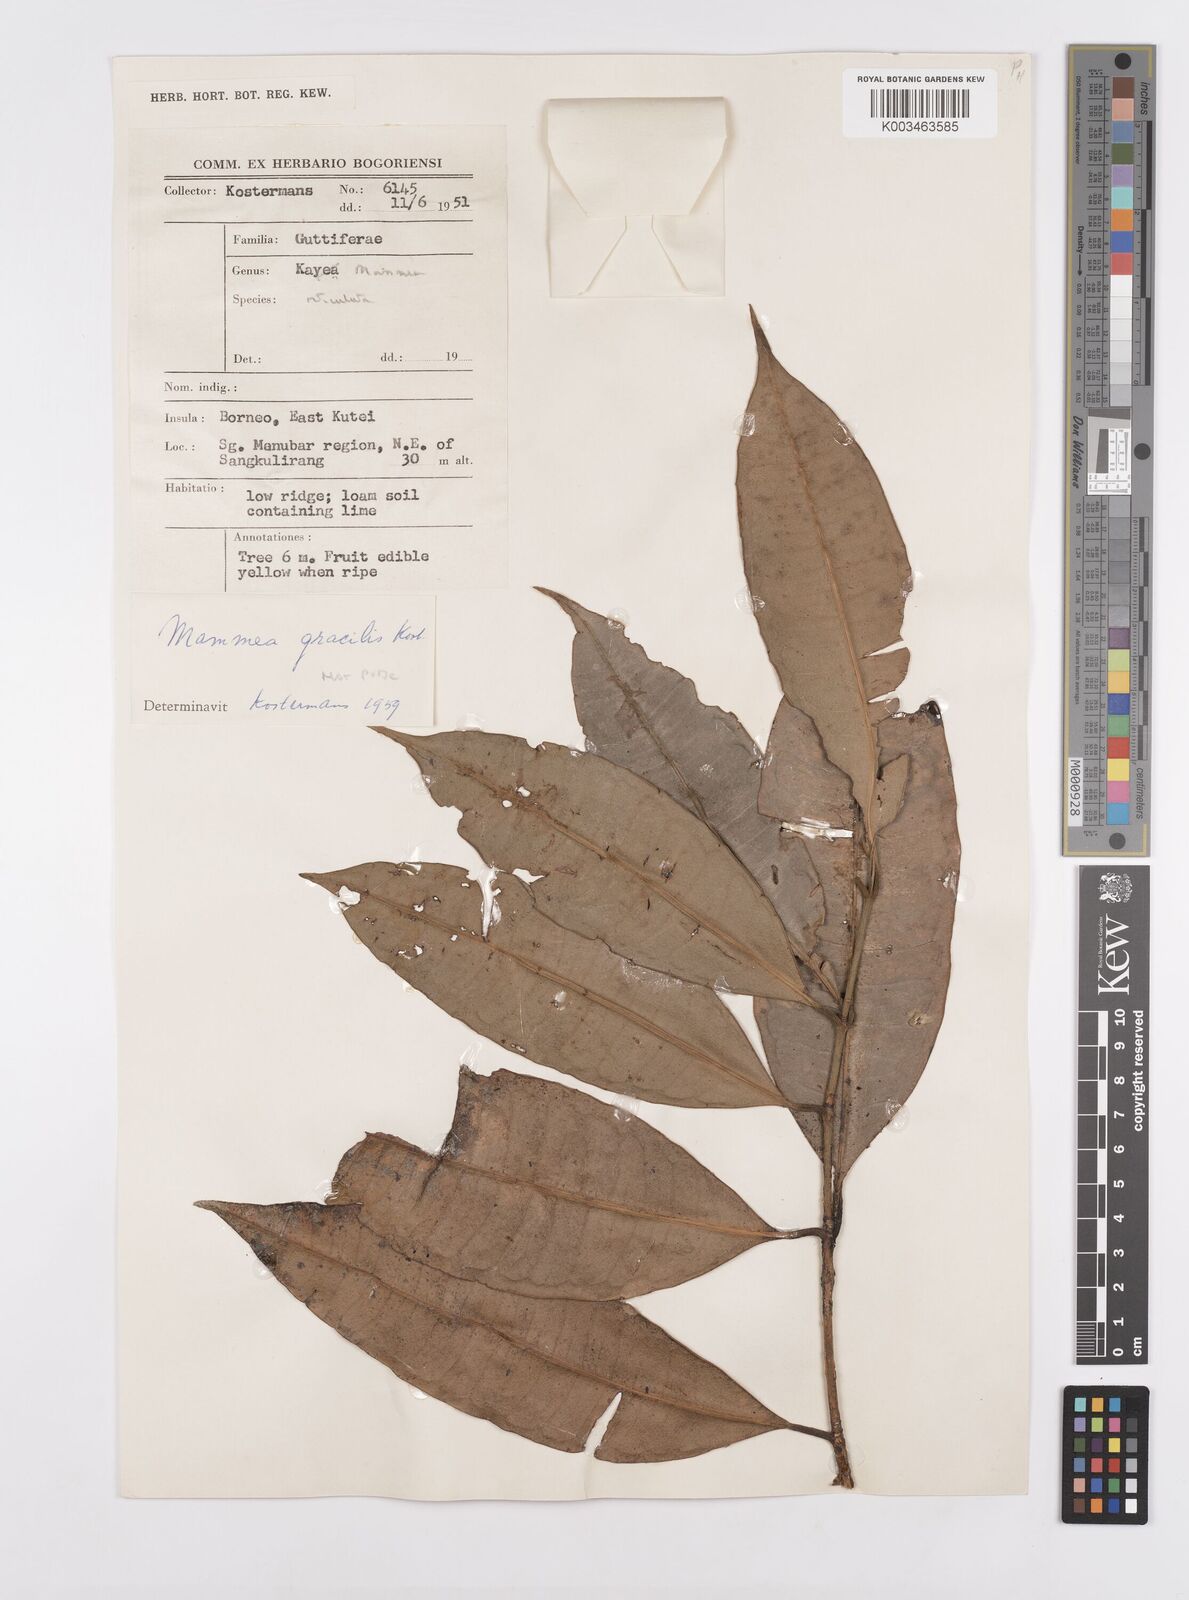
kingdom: Plantae
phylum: Tracheophyta
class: Magnoliopsida
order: Malpighiales
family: Calophyllaceae
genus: Mammea
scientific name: Mammea reticulata
